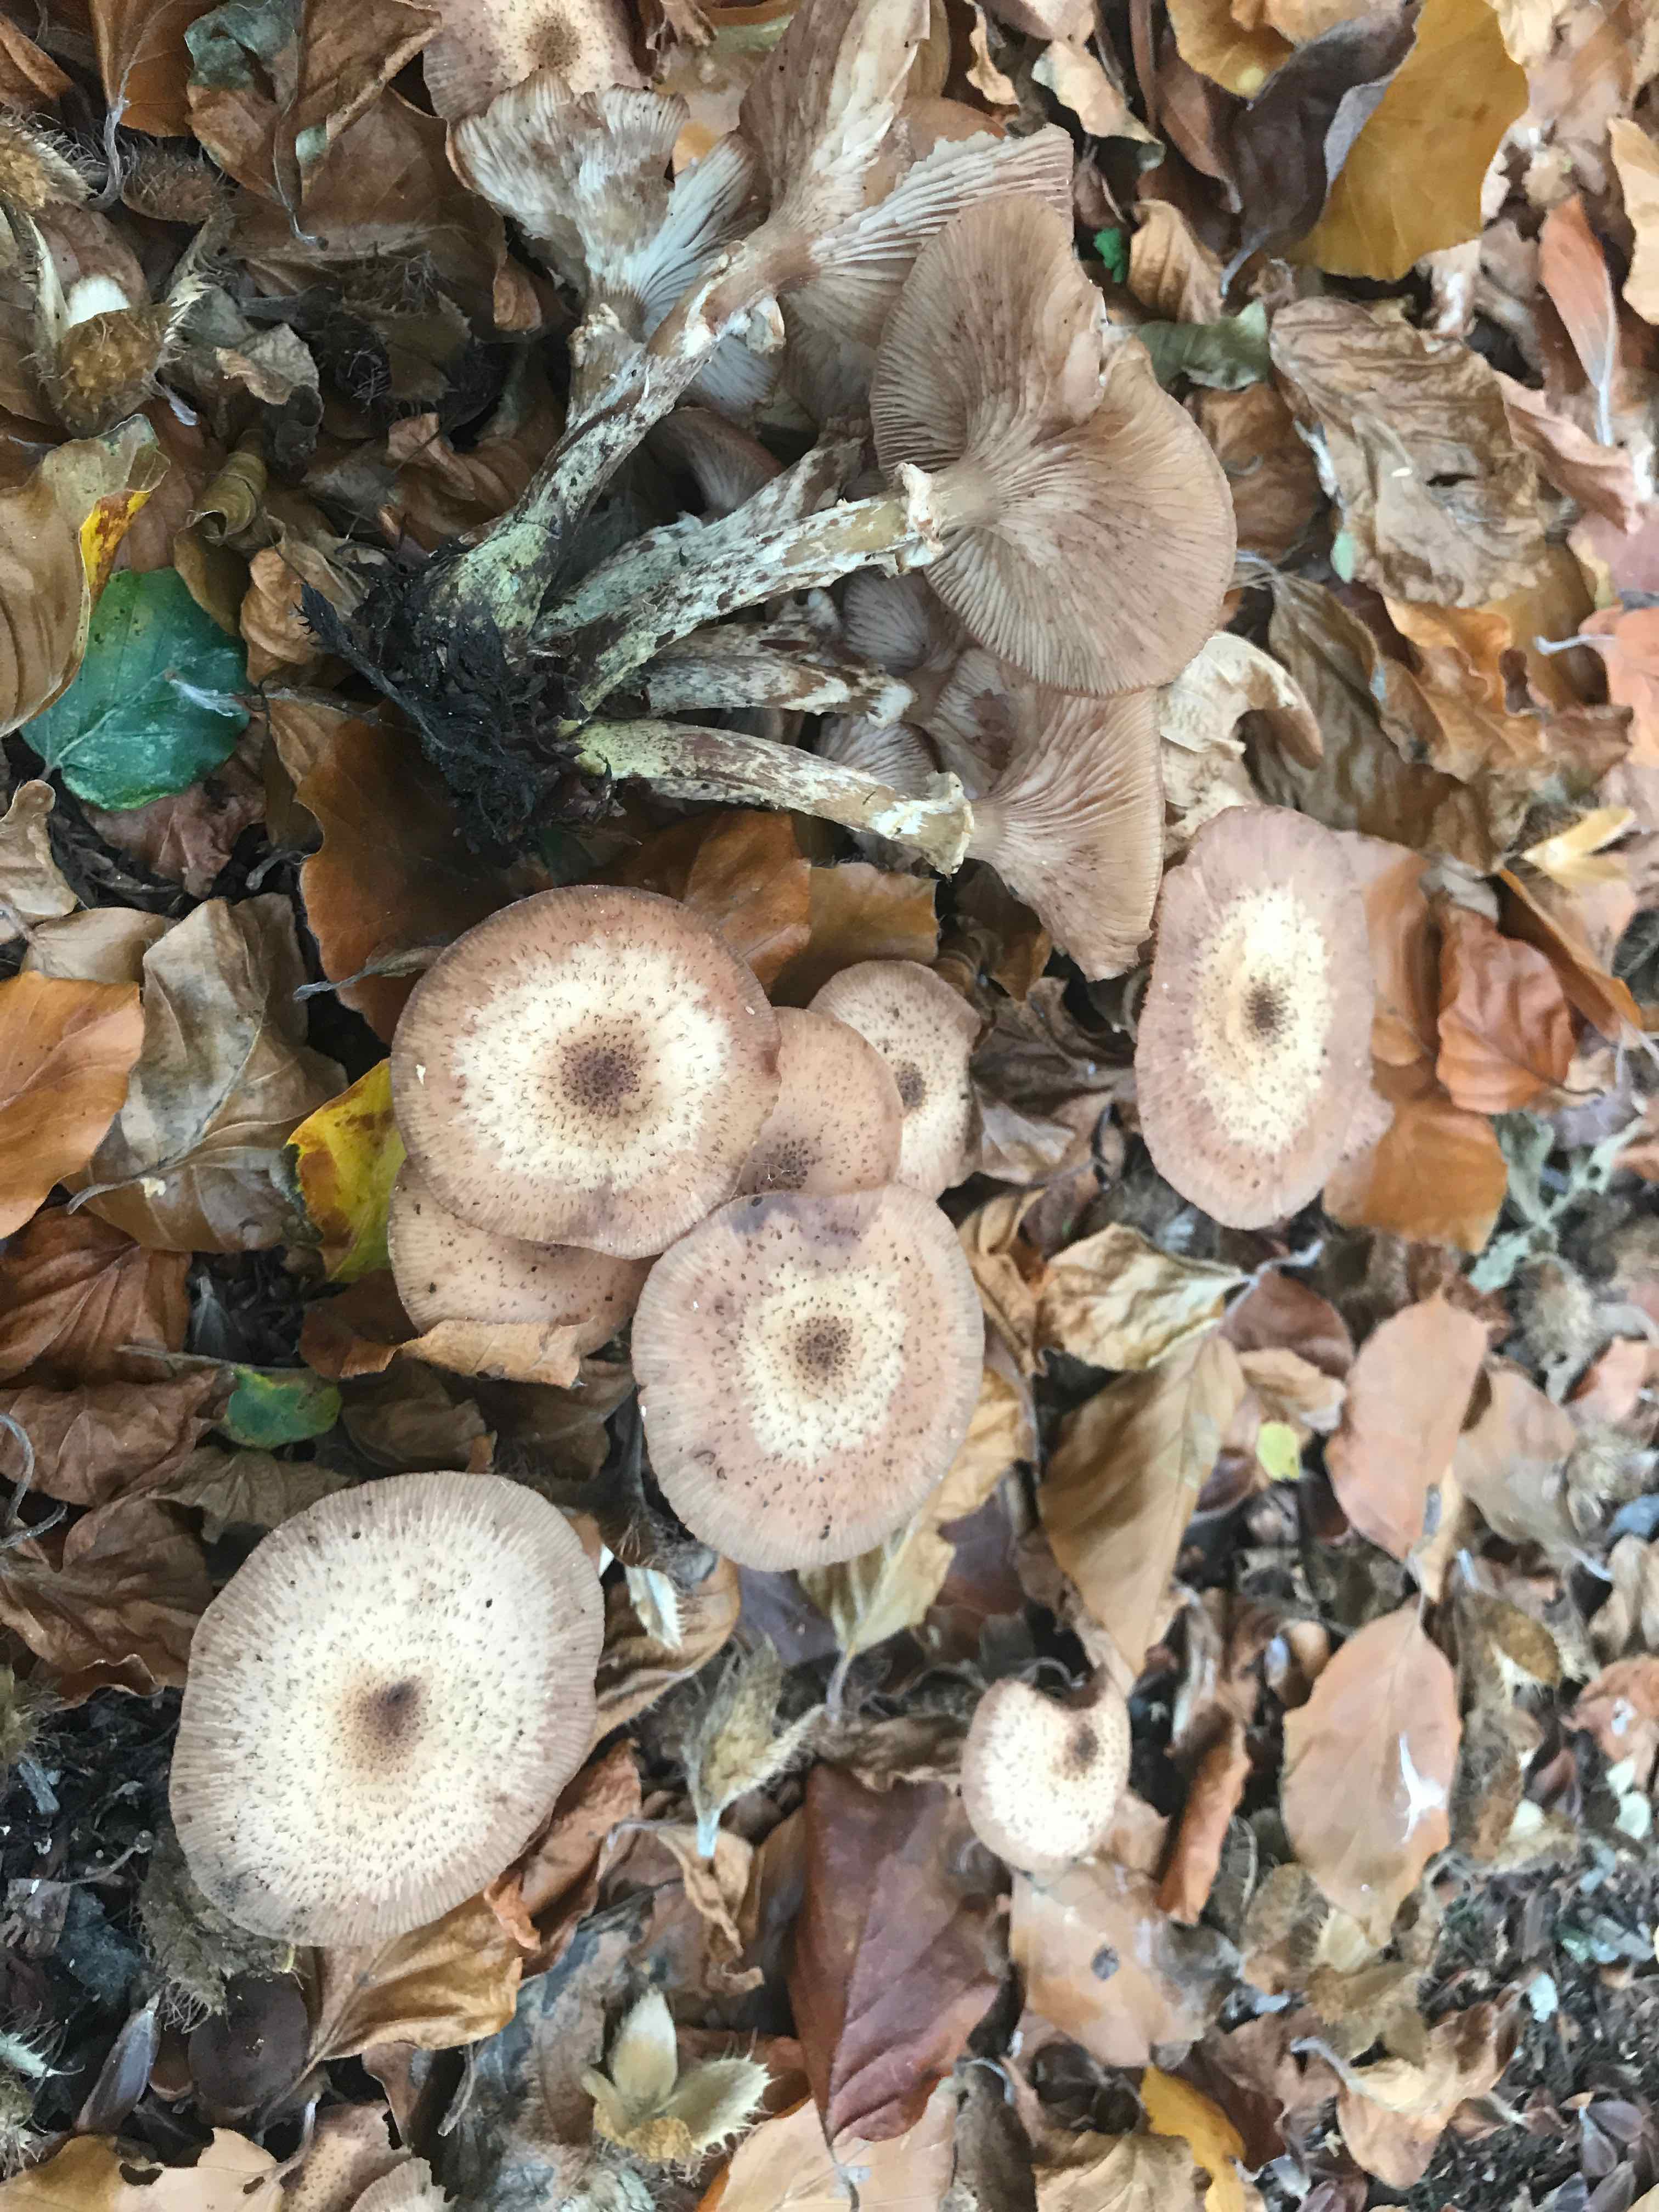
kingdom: Fungi
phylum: Basidiomycota
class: Agaricomycetes
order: Agaricales
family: Physalacriaceae
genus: Armillaria
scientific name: Armillaria lutea
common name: køllestokket honningsvamp
